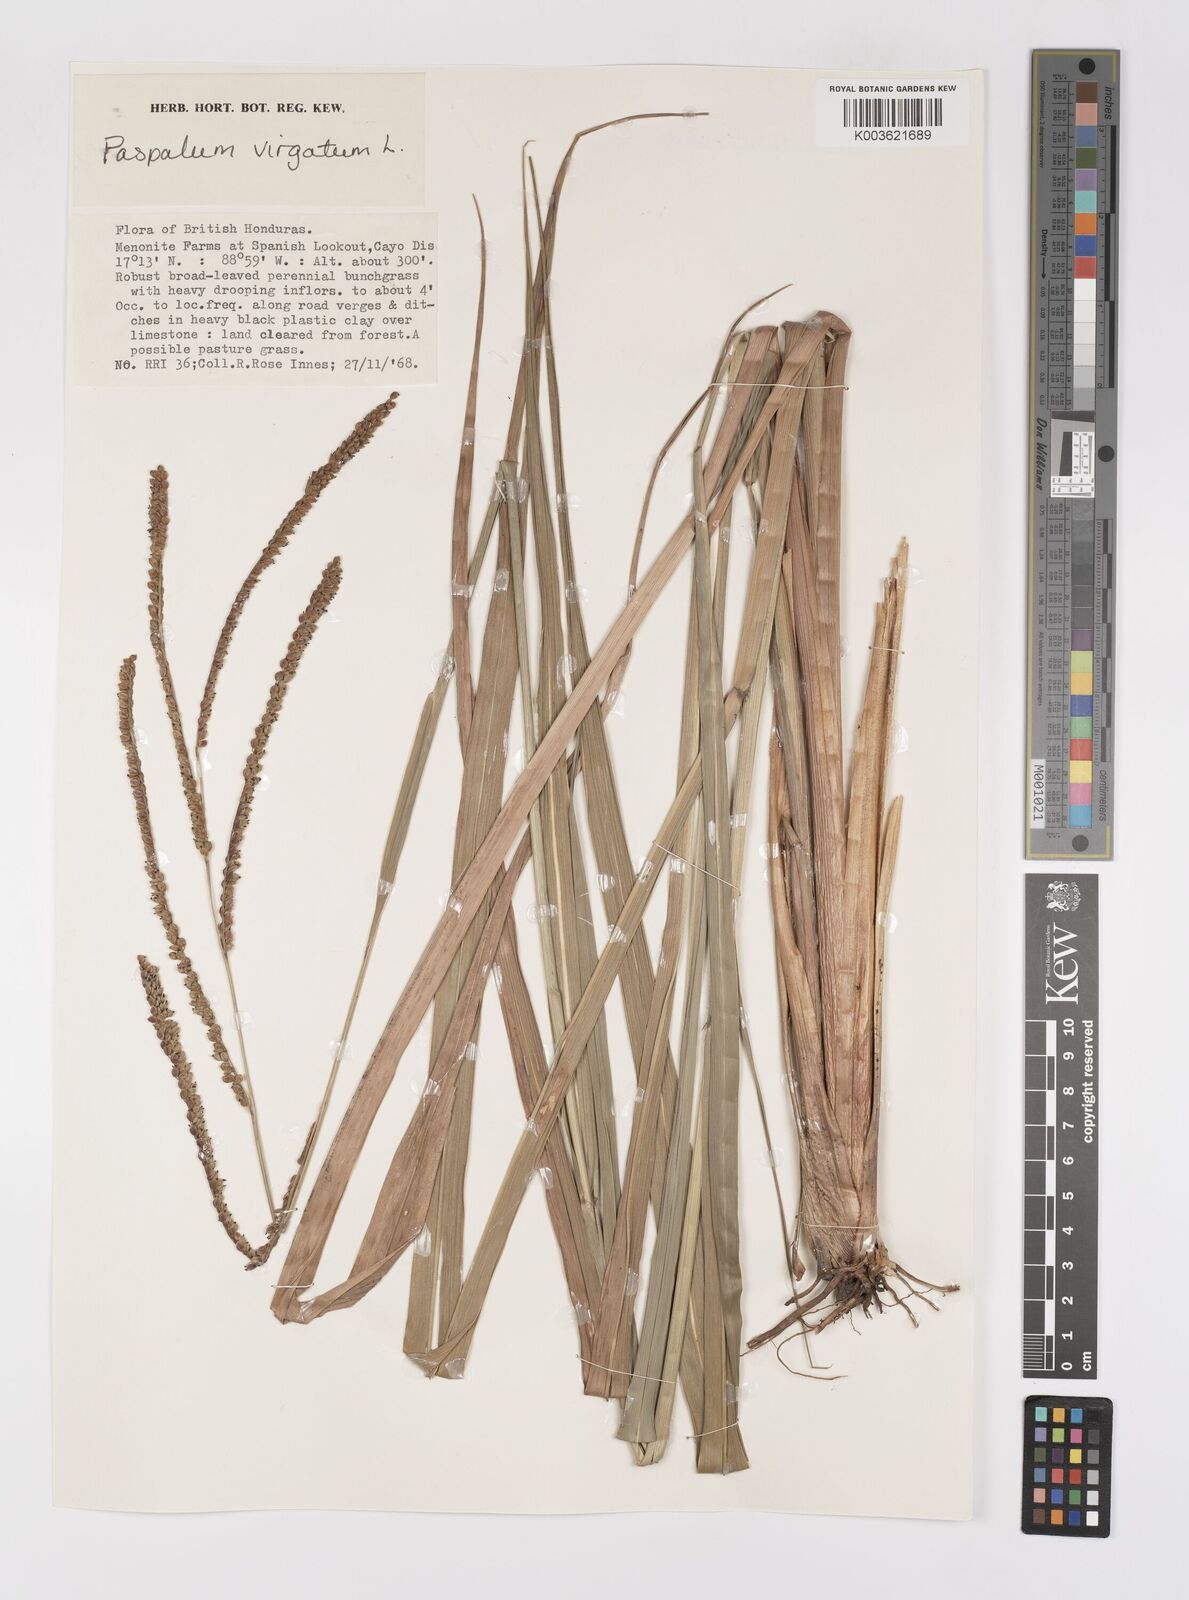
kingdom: Plantae
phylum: Tracheophyta
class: Liliopsida
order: Poales
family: Poaceae
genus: Paspalum
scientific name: Paspalum virgatum
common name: Talquezal
